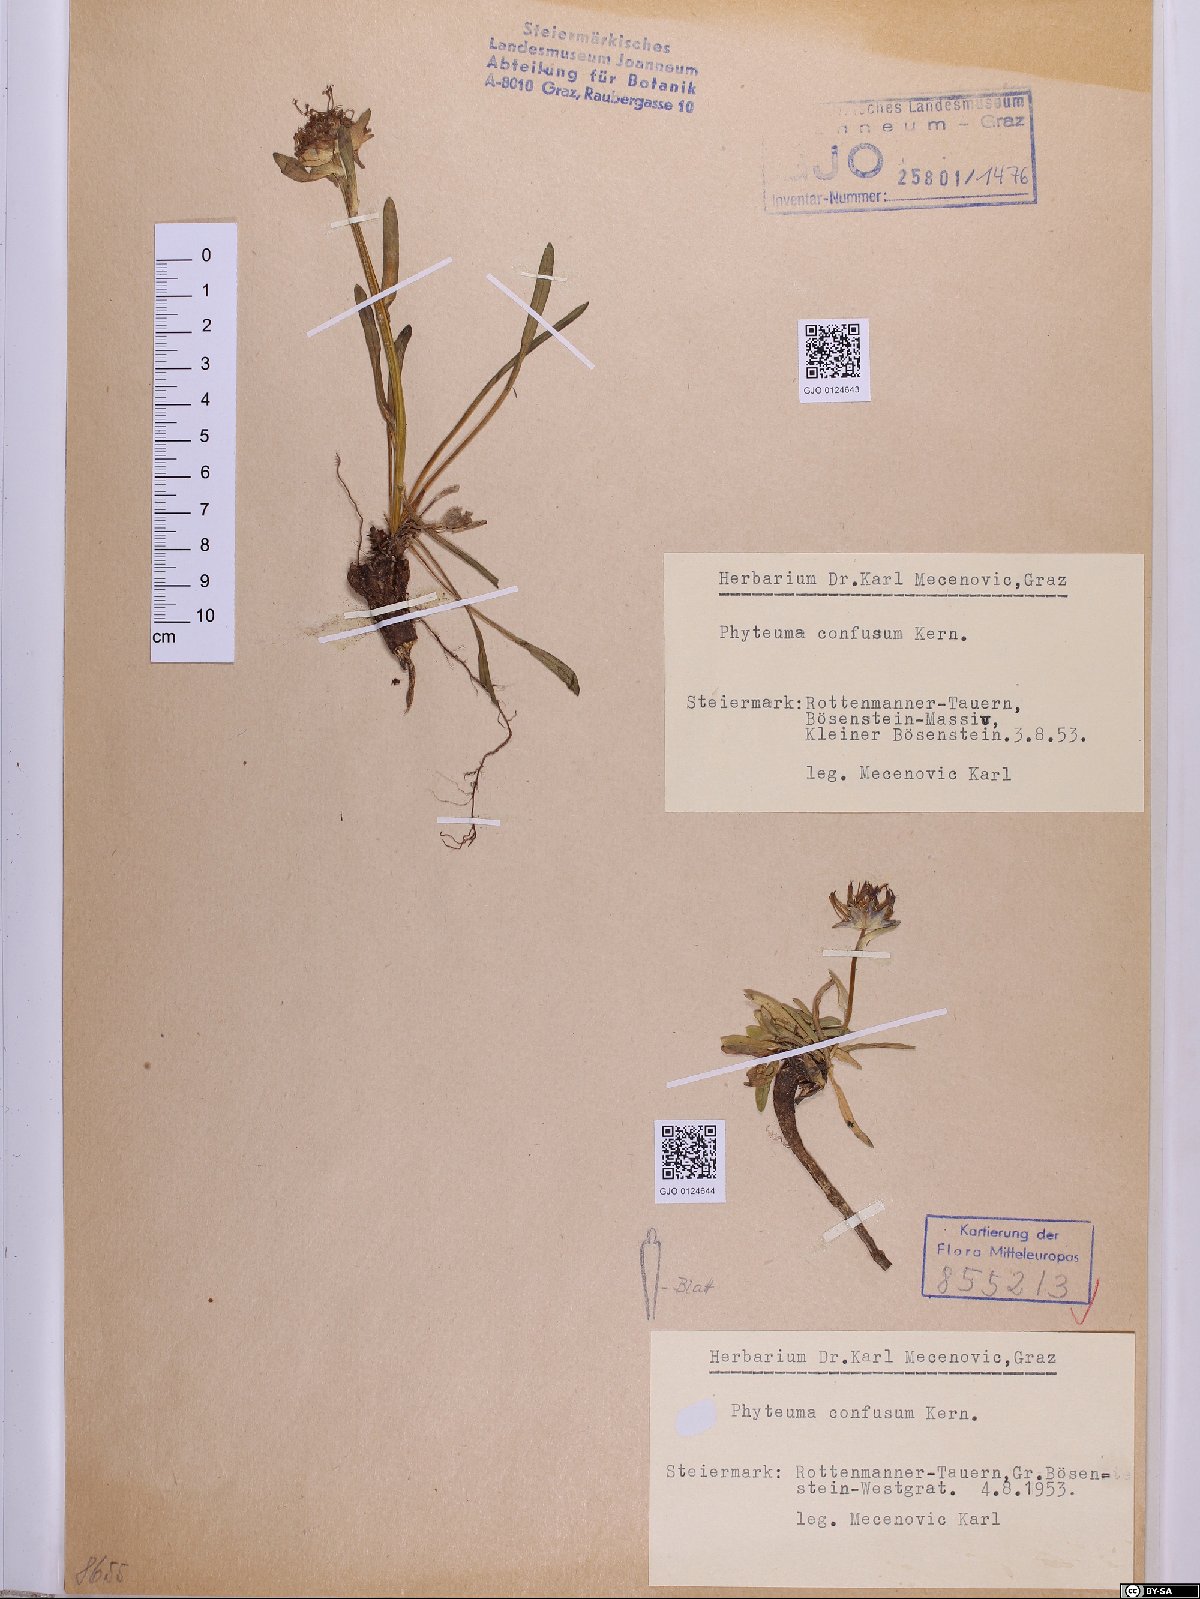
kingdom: Plantae
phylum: Tracheophyta
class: Magnoliopsida
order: Asterales
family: Campanulaceae
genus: Phyteuma
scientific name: Phyteuma confusum
